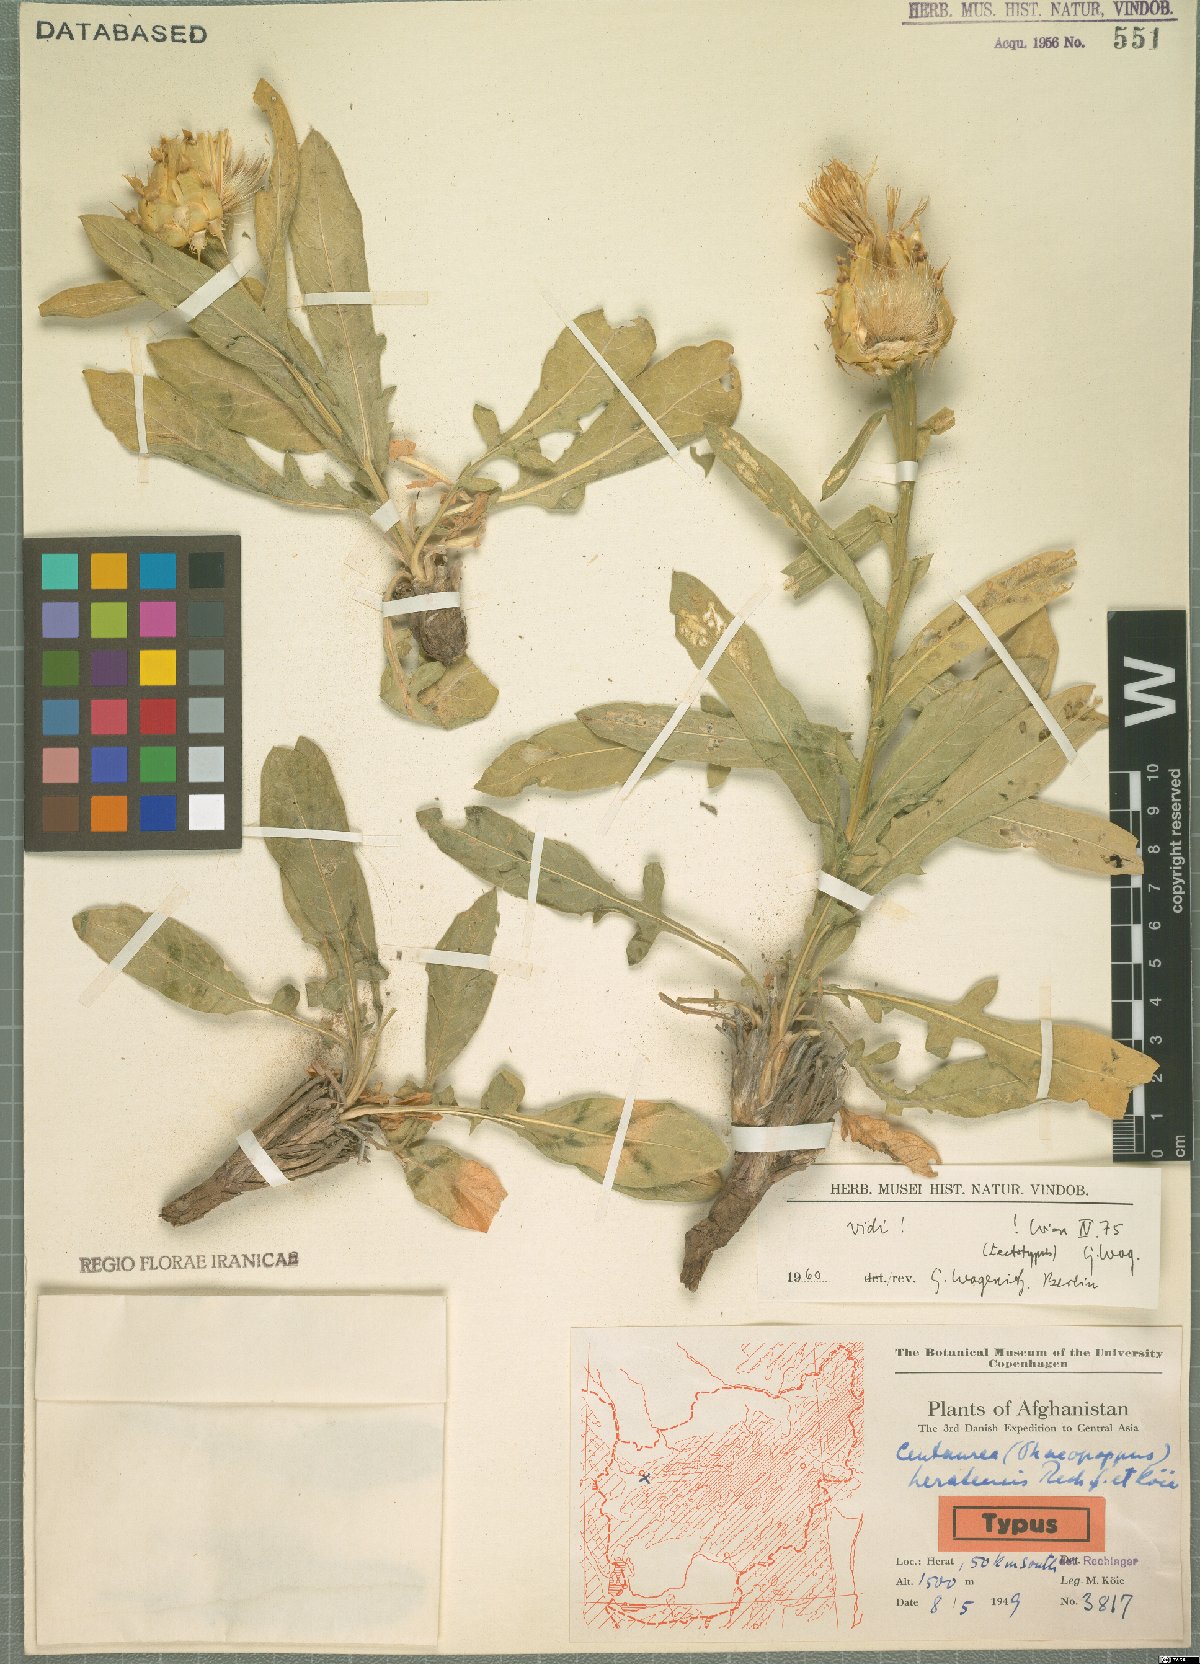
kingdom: Plantae
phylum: Tracheophyta
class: Magnoliopsida
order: Asterales
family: Asteraceae
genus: Centaurea
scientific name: Centaurea heratensis
